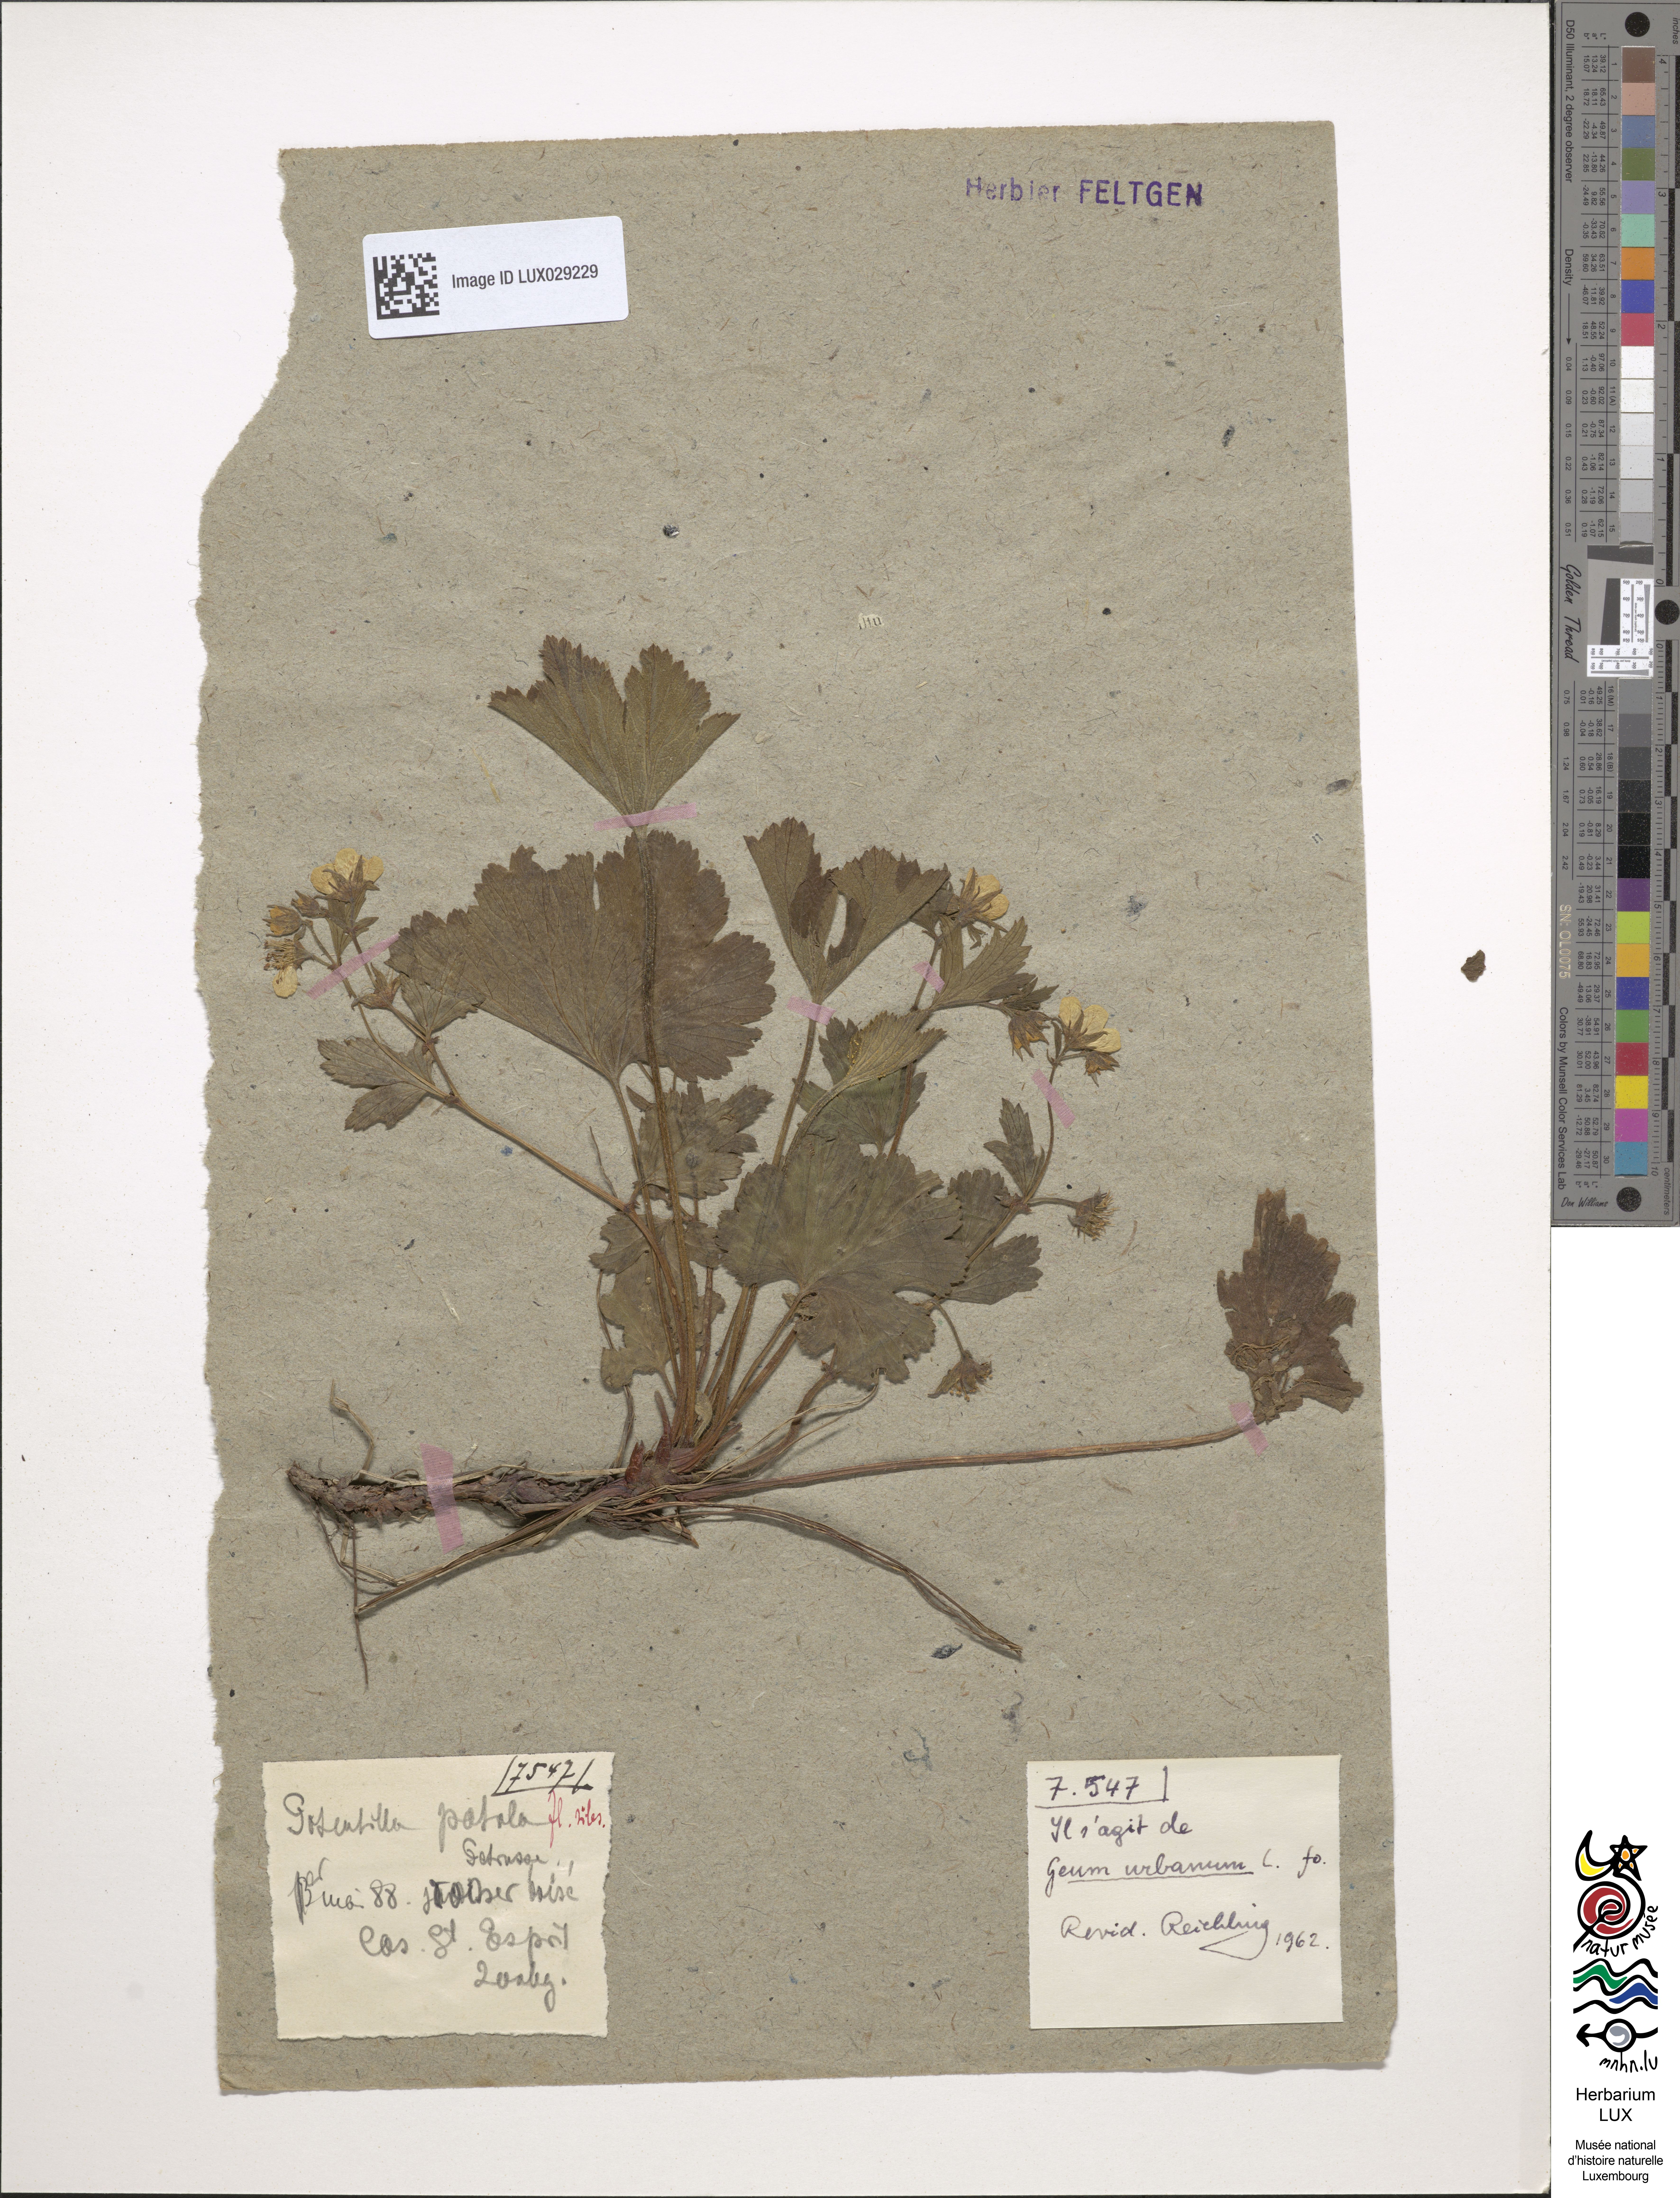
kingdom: Plantae
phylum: Tracheophyta
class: Magnoliopsida
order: Rosales
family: Rosaceae
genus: Geum
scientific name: Geum urbanum
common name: Wood avens
